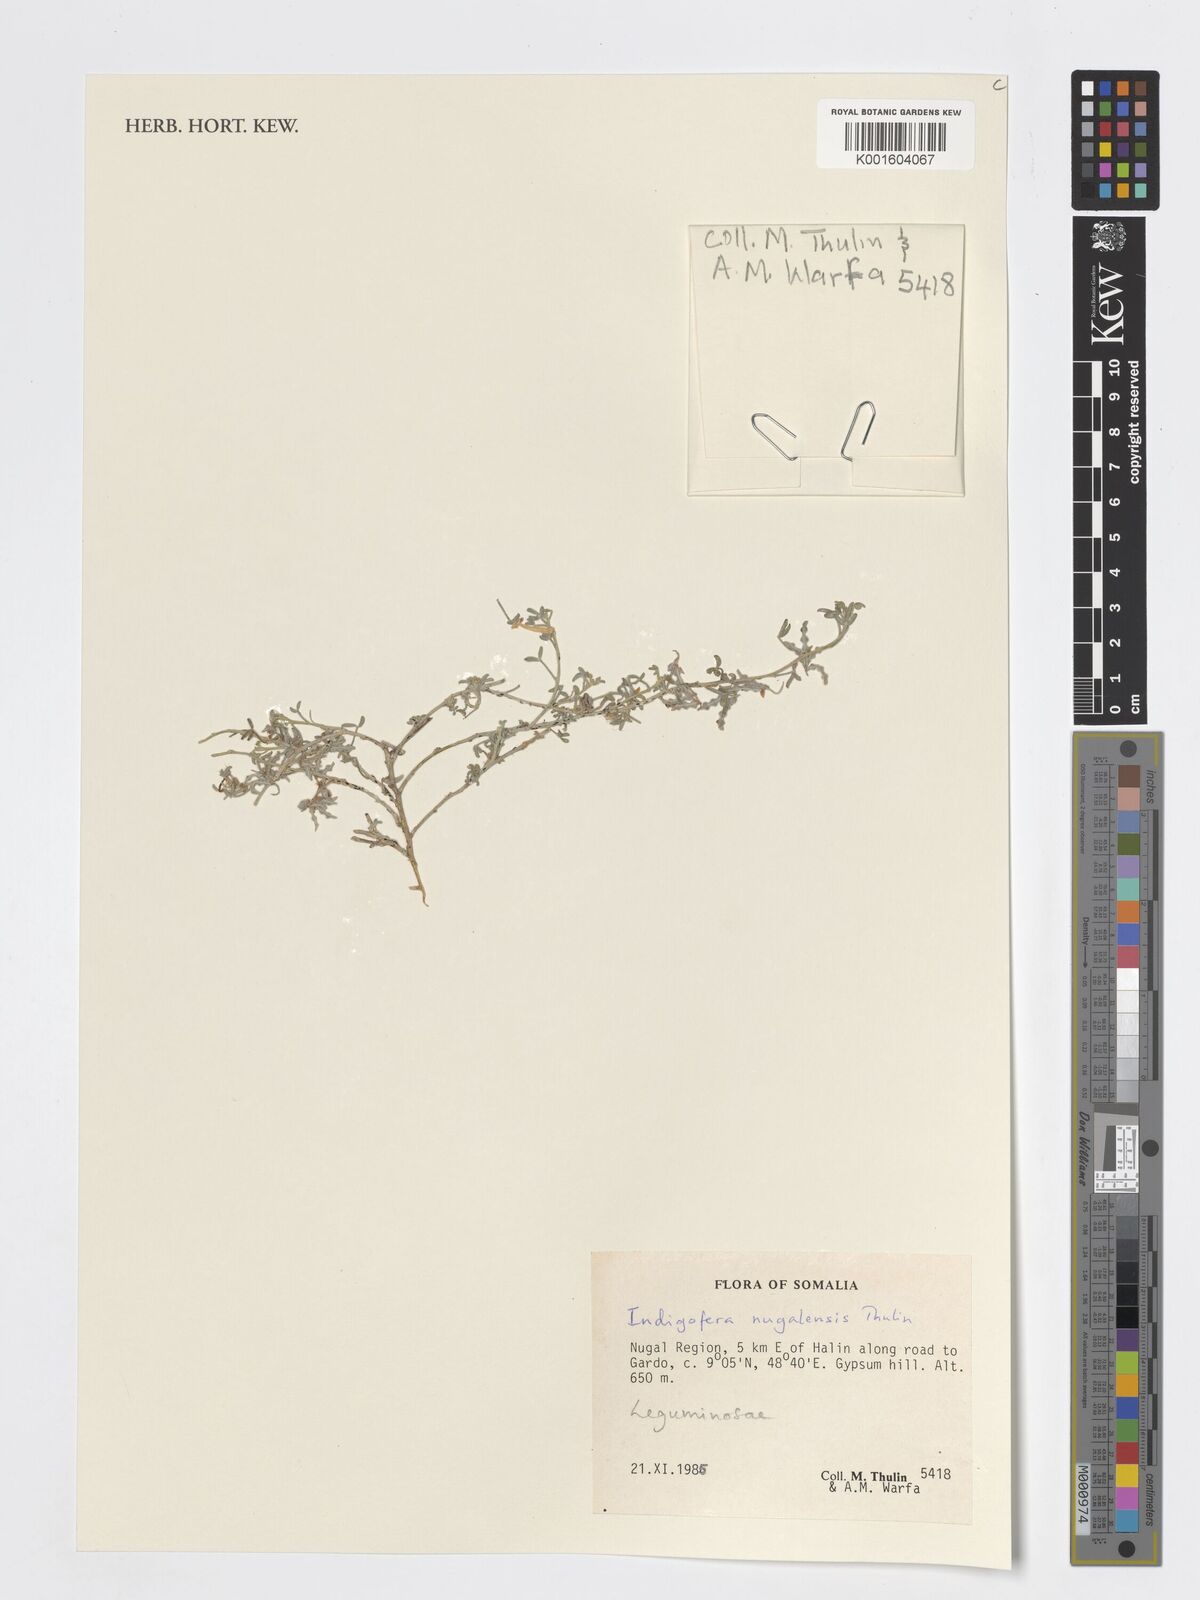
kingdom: Plantae
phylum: Tracheophyta
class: Magnoliopsida
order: Fabales
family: Fabaceae
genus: Indigofera
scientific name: Indigofera nugalensis
